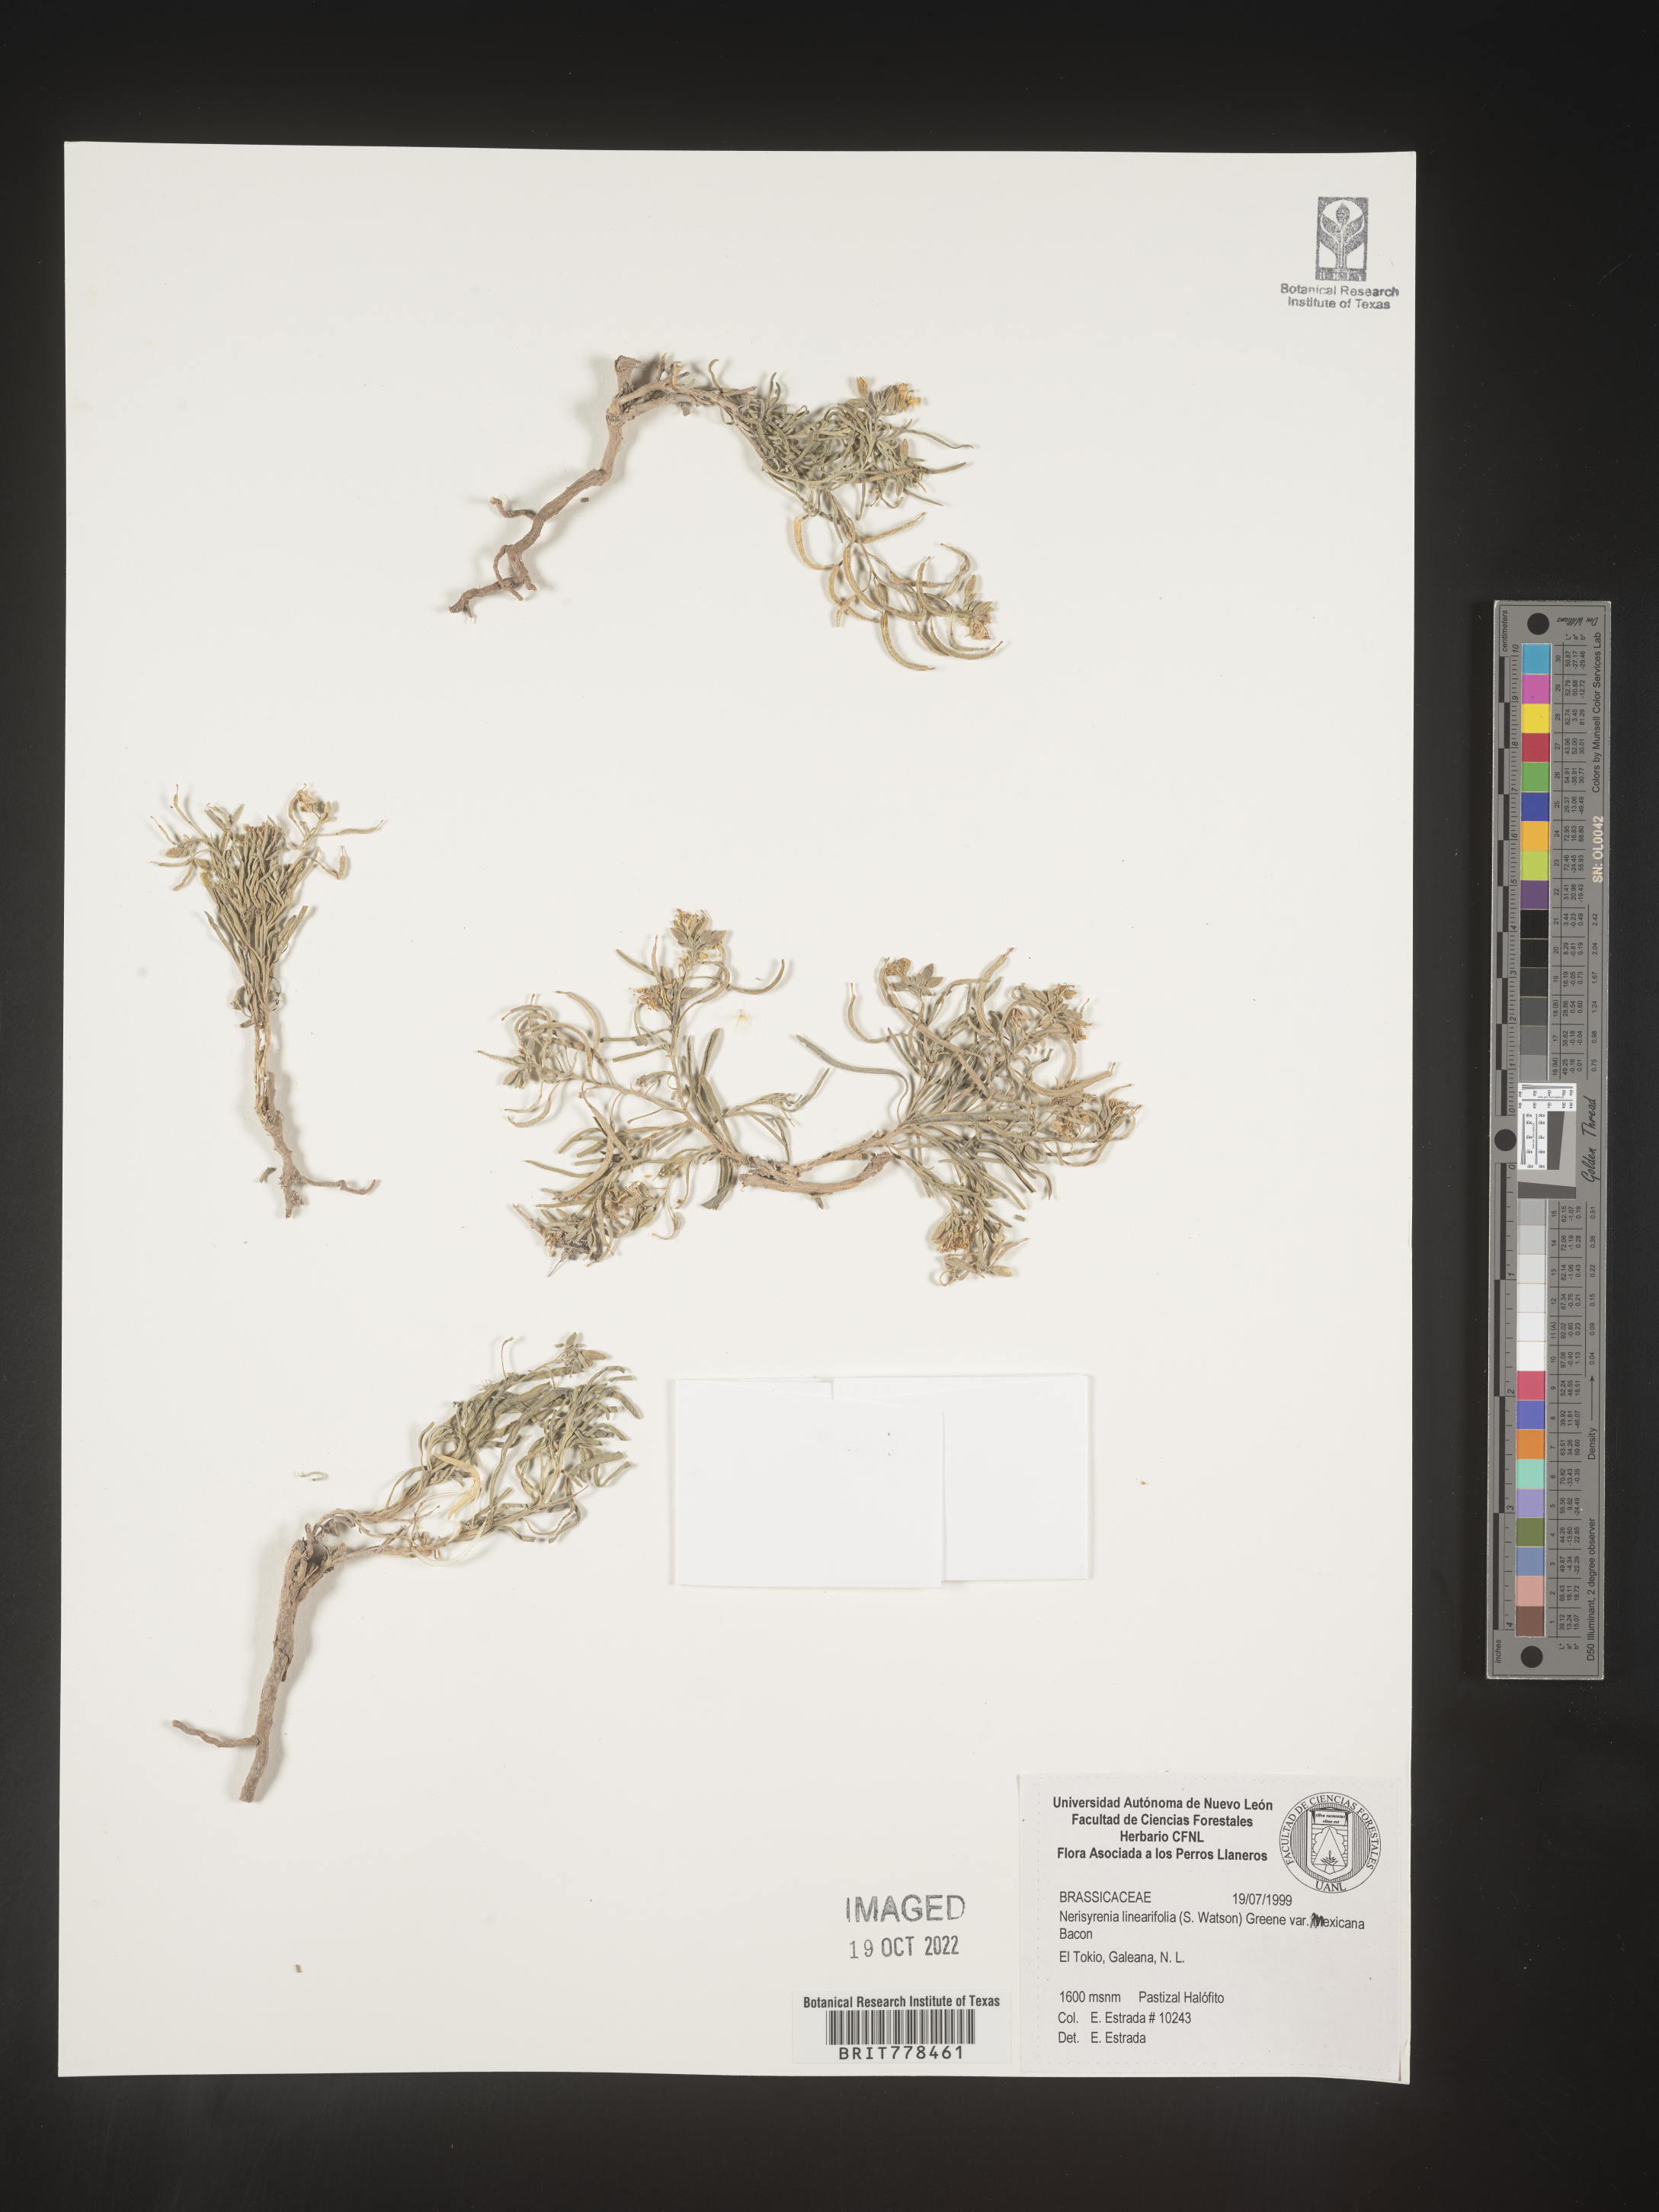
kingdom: Plantae
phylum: Tracheophyta
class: Magnoliopsida
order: Brassicales
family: Brassicaceae
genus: Nerisyrenia
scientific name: Nerisyrenia
